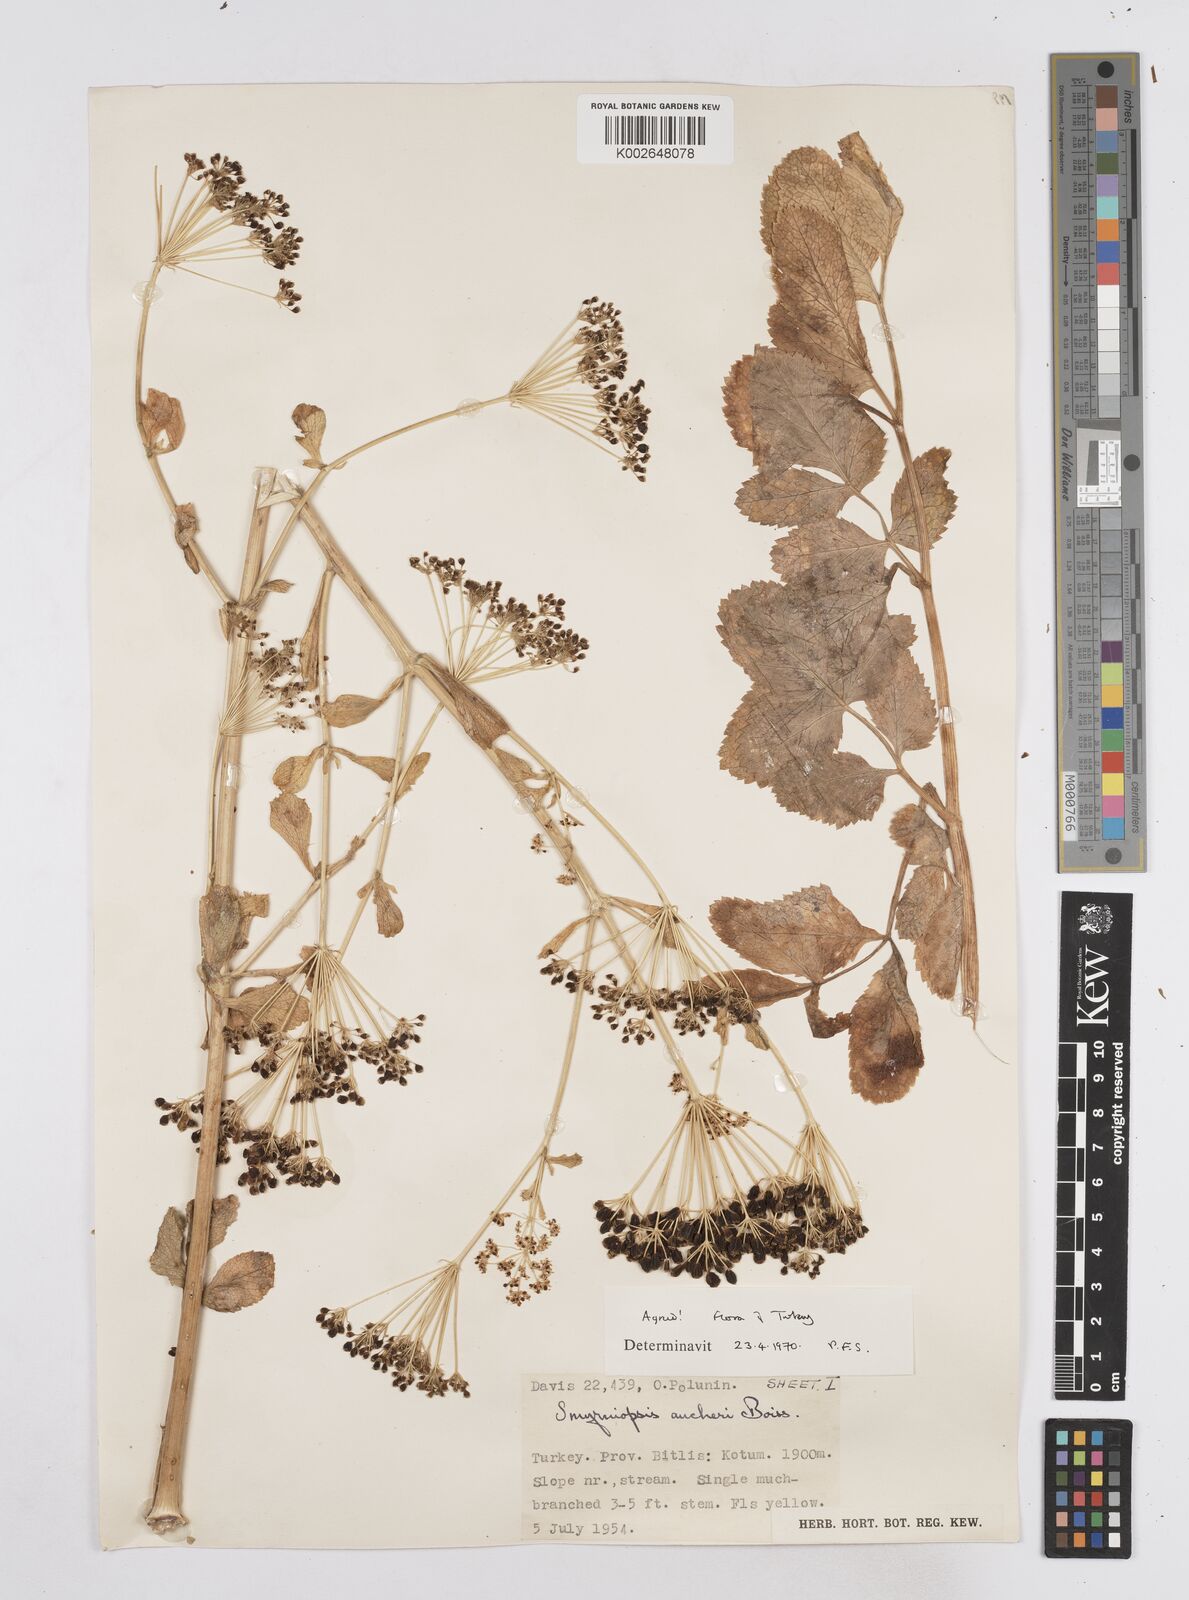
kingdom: Plantae
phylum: Tracheophyta
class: Magnoliopsida
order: Apiales
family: Apiaceae
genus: Smyrniopsis
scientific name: Smyrniopsis aucheri
